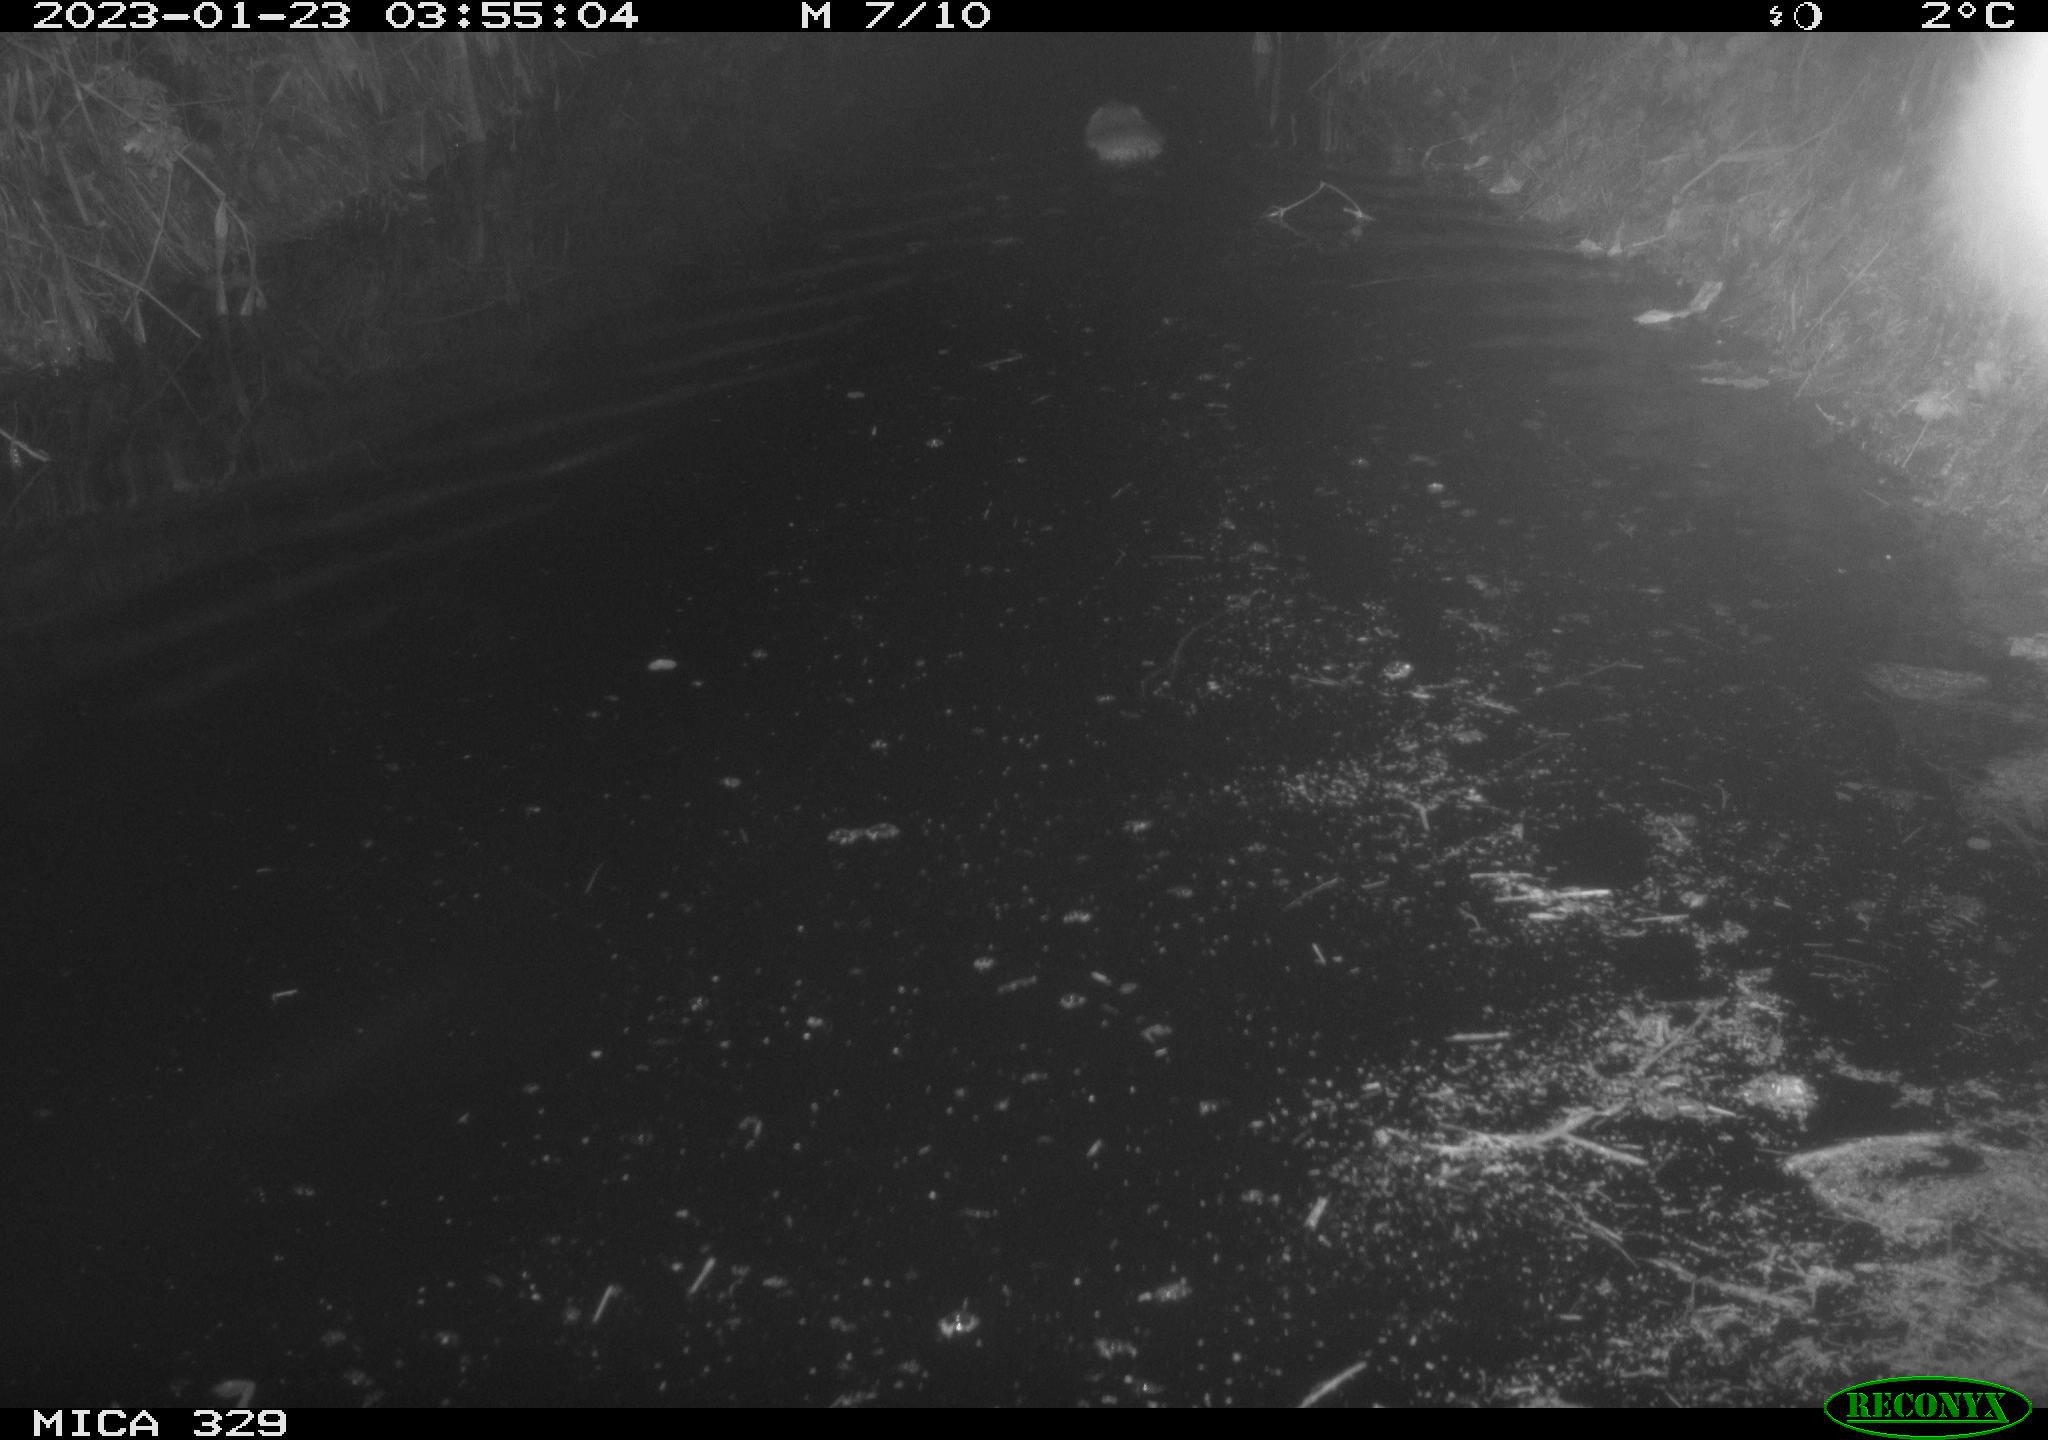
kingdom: Animalia
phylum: Chordata
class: Mammalia
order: Rodentia
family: Cricetidae
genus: Ondatra
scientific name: Ondatra zibethicus
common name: Muskrat
